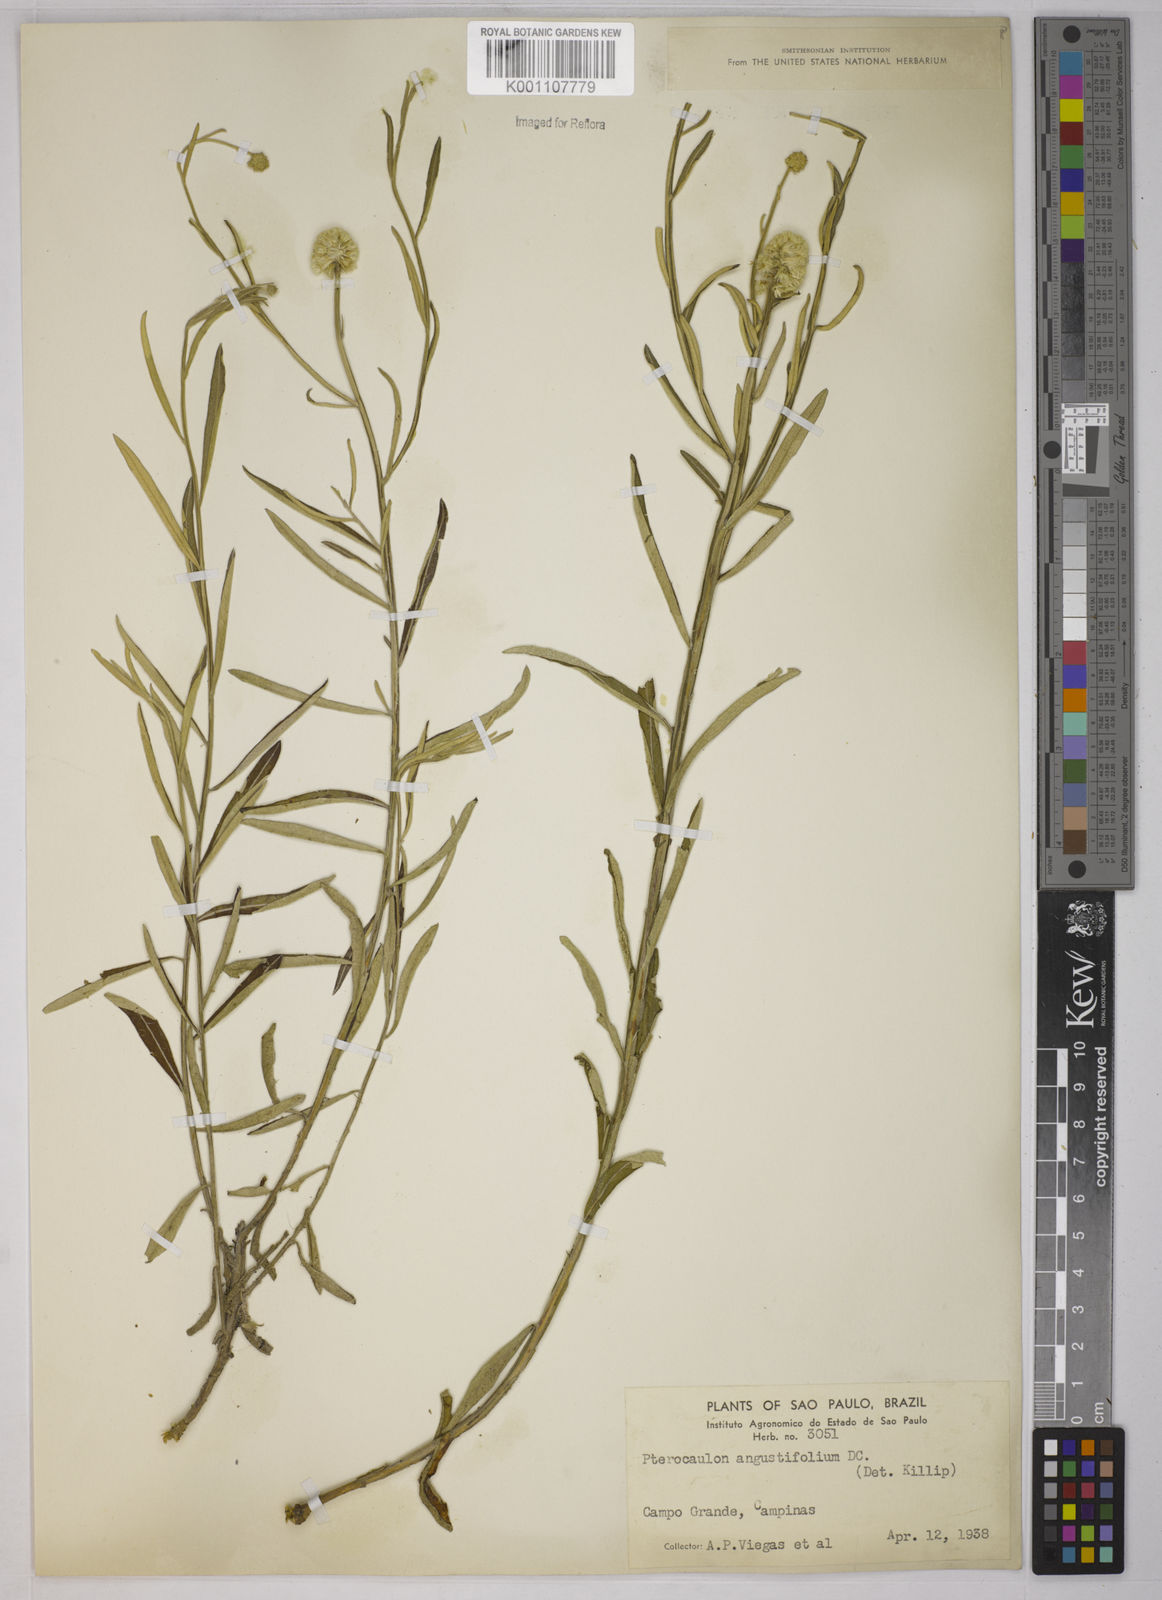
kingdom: Plantae
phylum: Tracheophyta
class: Magnoliopsida
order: Asterales
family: Asteraceae
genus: Pterocaulon
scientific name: Pterocaulon angustifolium
